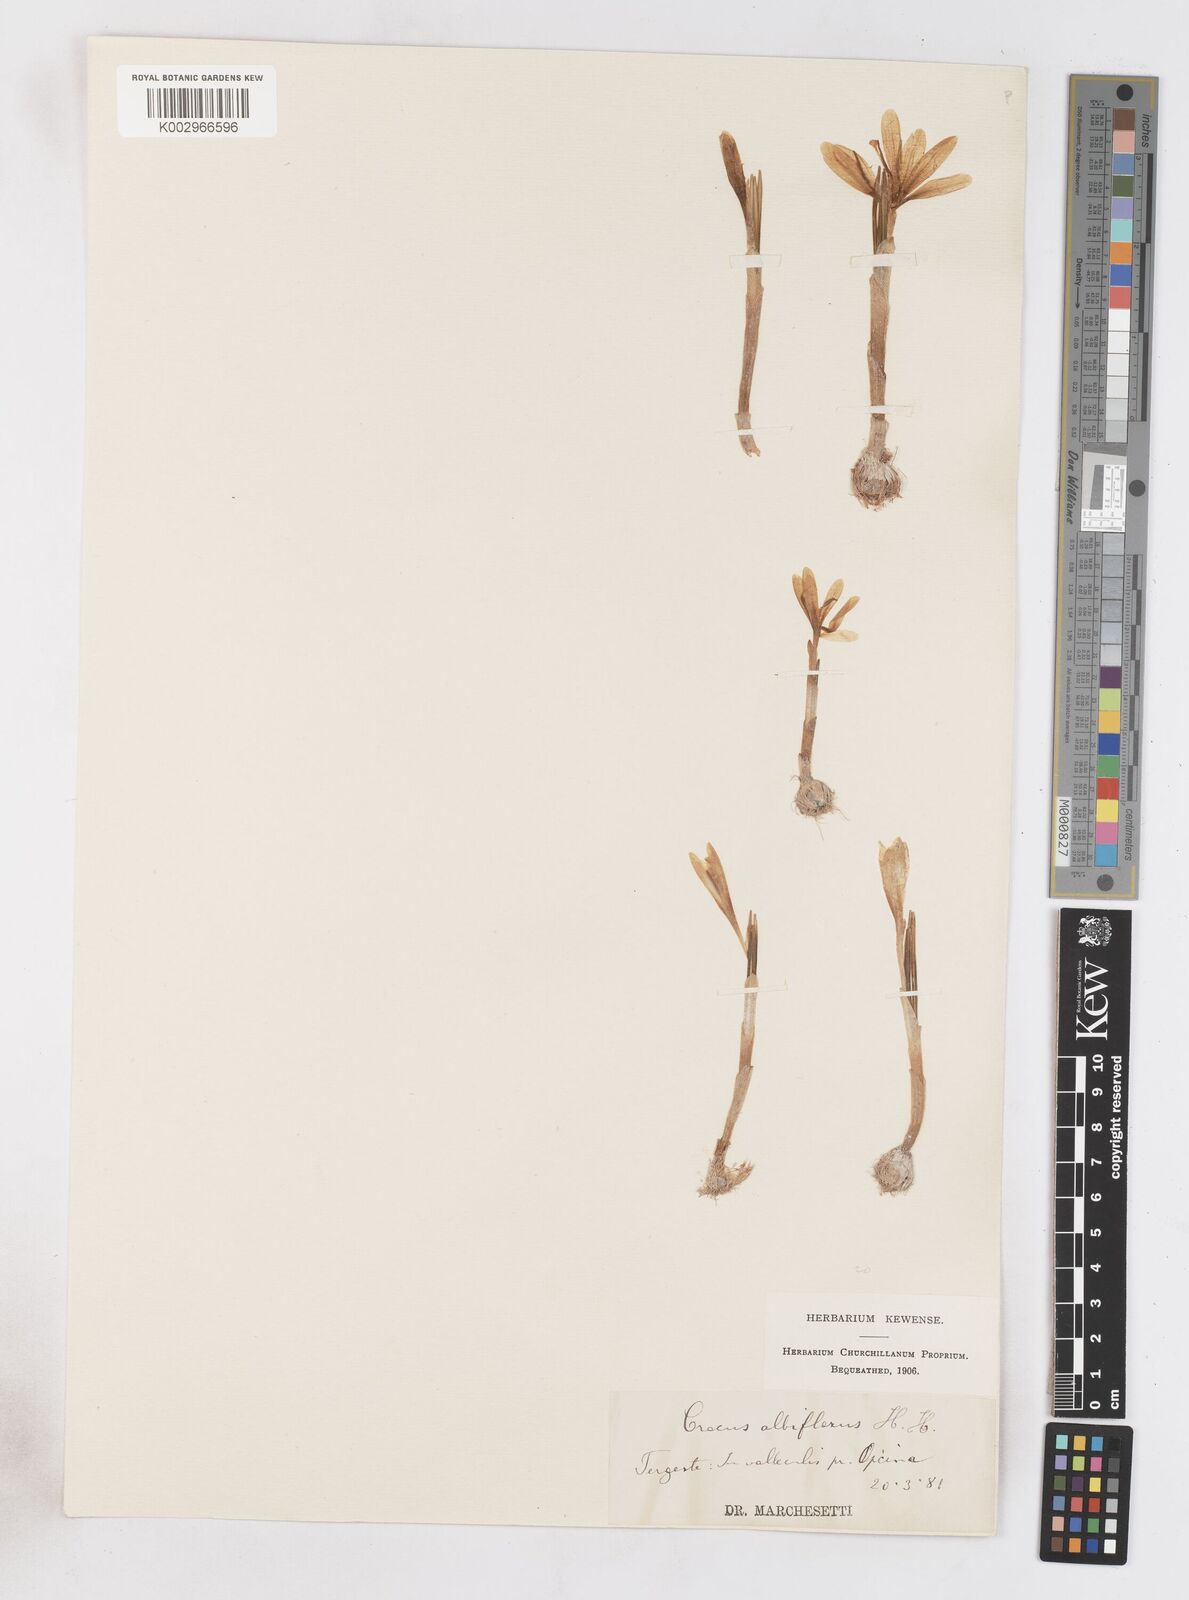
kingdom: Plantae
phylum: Tracheophyta
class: Liliopsida
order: Asparagales
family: Iridaceae
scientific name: Iridaceae
